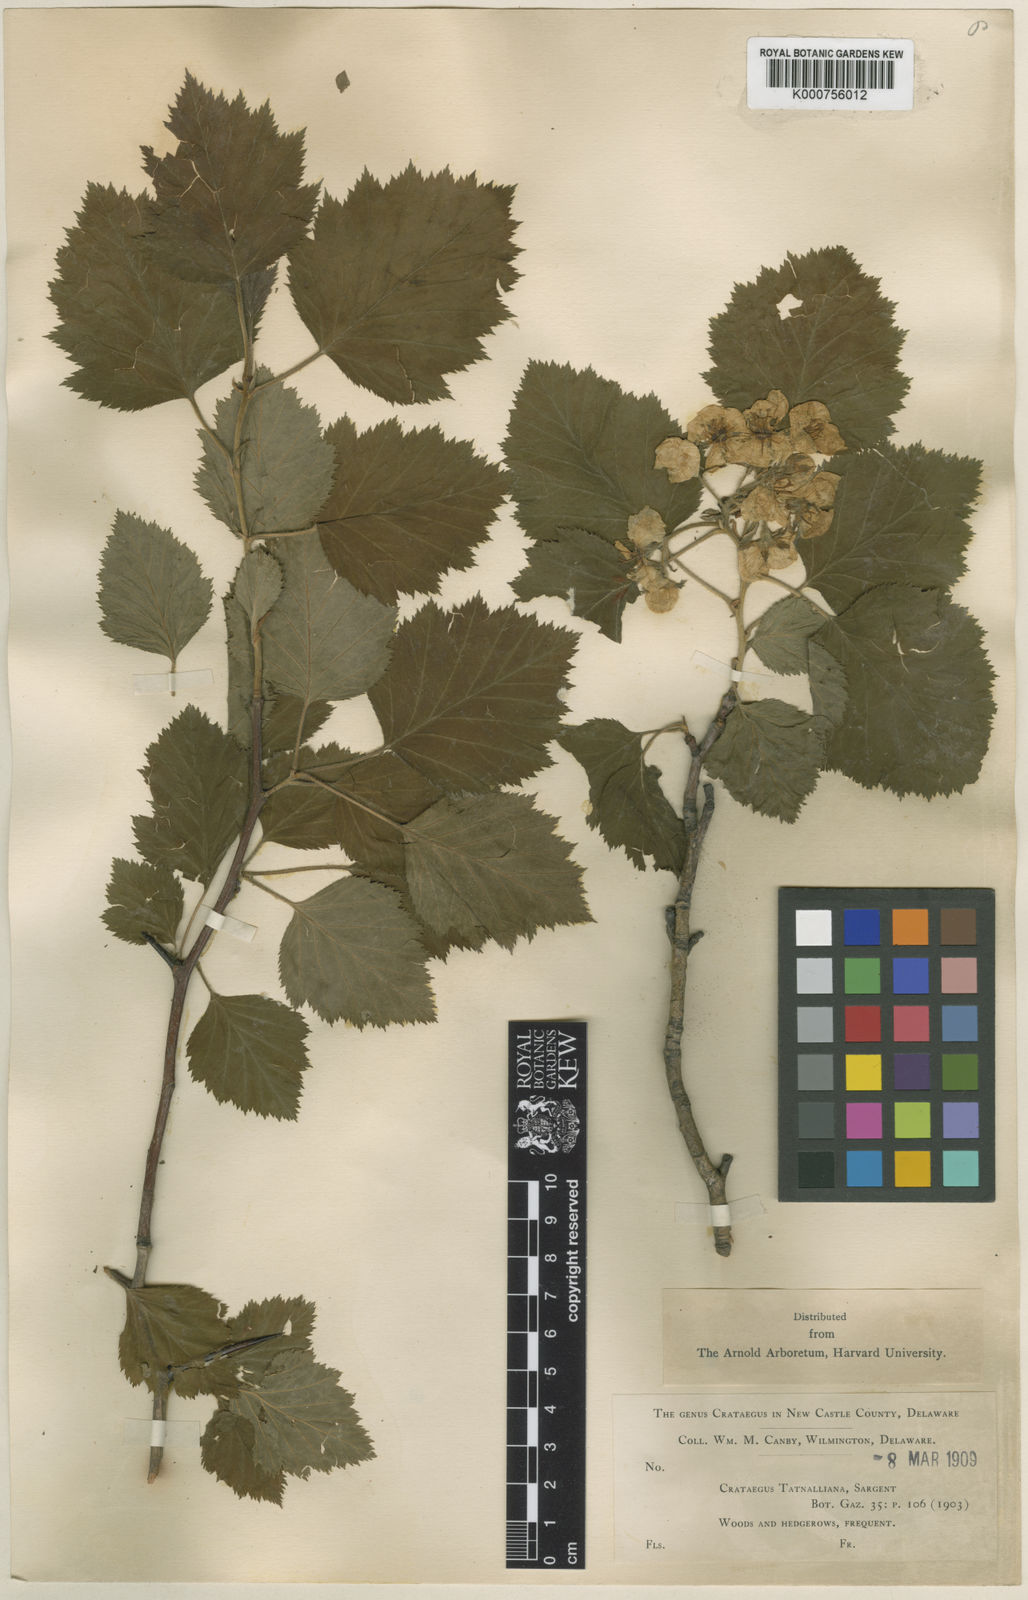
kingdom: Plantae
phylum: Tracheophyta
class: Magnoliopsida
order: Rosales
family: Rosaceae
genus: Crataegus
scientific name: Crataegus pennsylvanica
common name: Pennsylvania hawthorn
